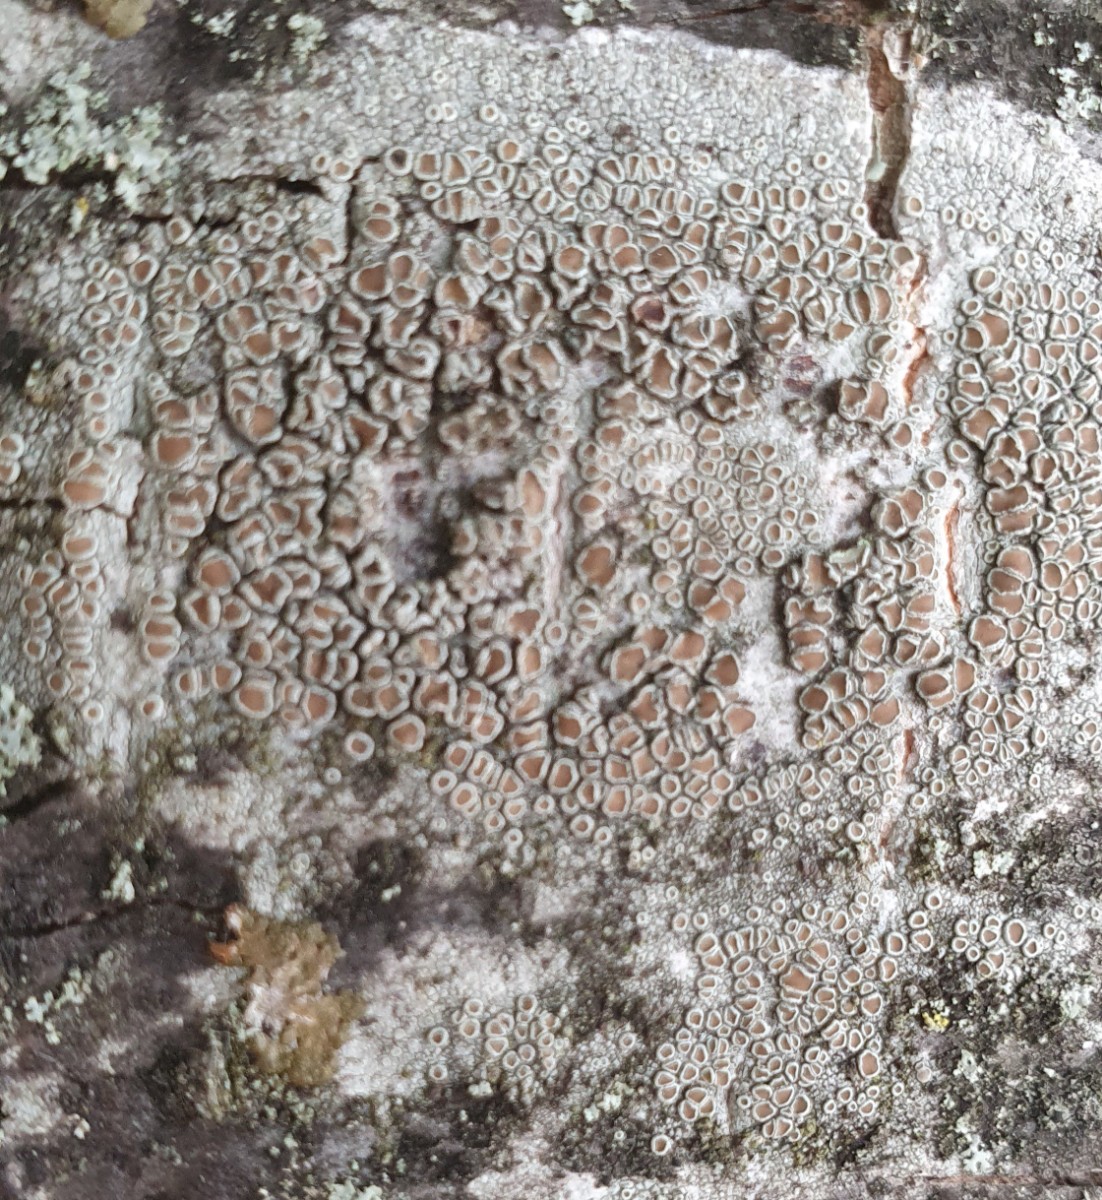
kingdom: Fungi
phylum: Ascomycota
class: Lecanoromycetes
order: Lecanorales
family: Lecanoraceae
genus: Lecanora
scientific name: Lecanora chlarotera
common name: brun kantskivelav
